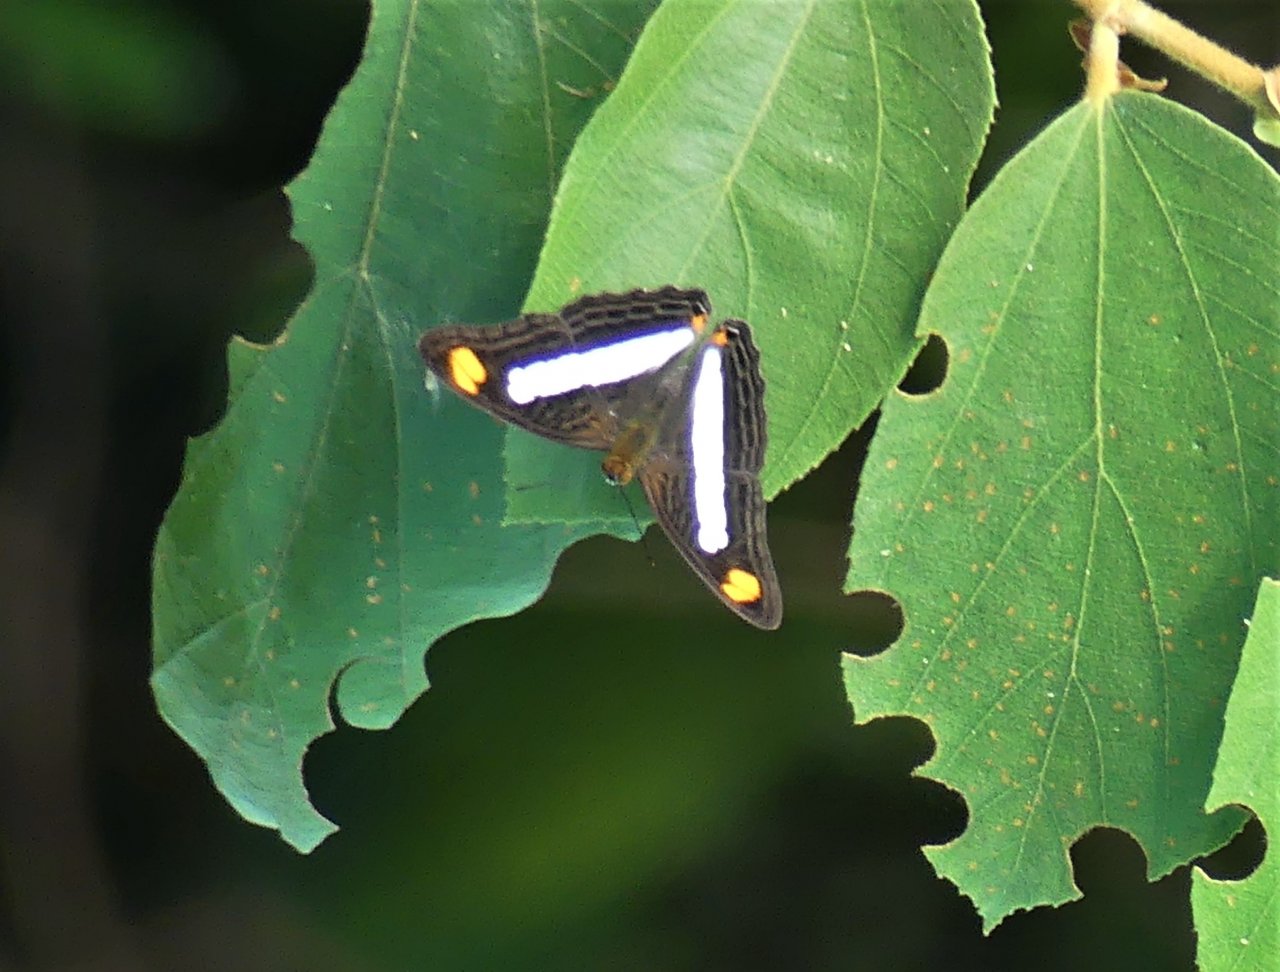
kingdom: Animalia
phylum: Arthropoda
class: Insecta
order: Lepidoptera
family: Nymphalidae
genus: Limenitis
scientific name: Limenitis Adelpha basiloides
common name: Spot-celled Sister
